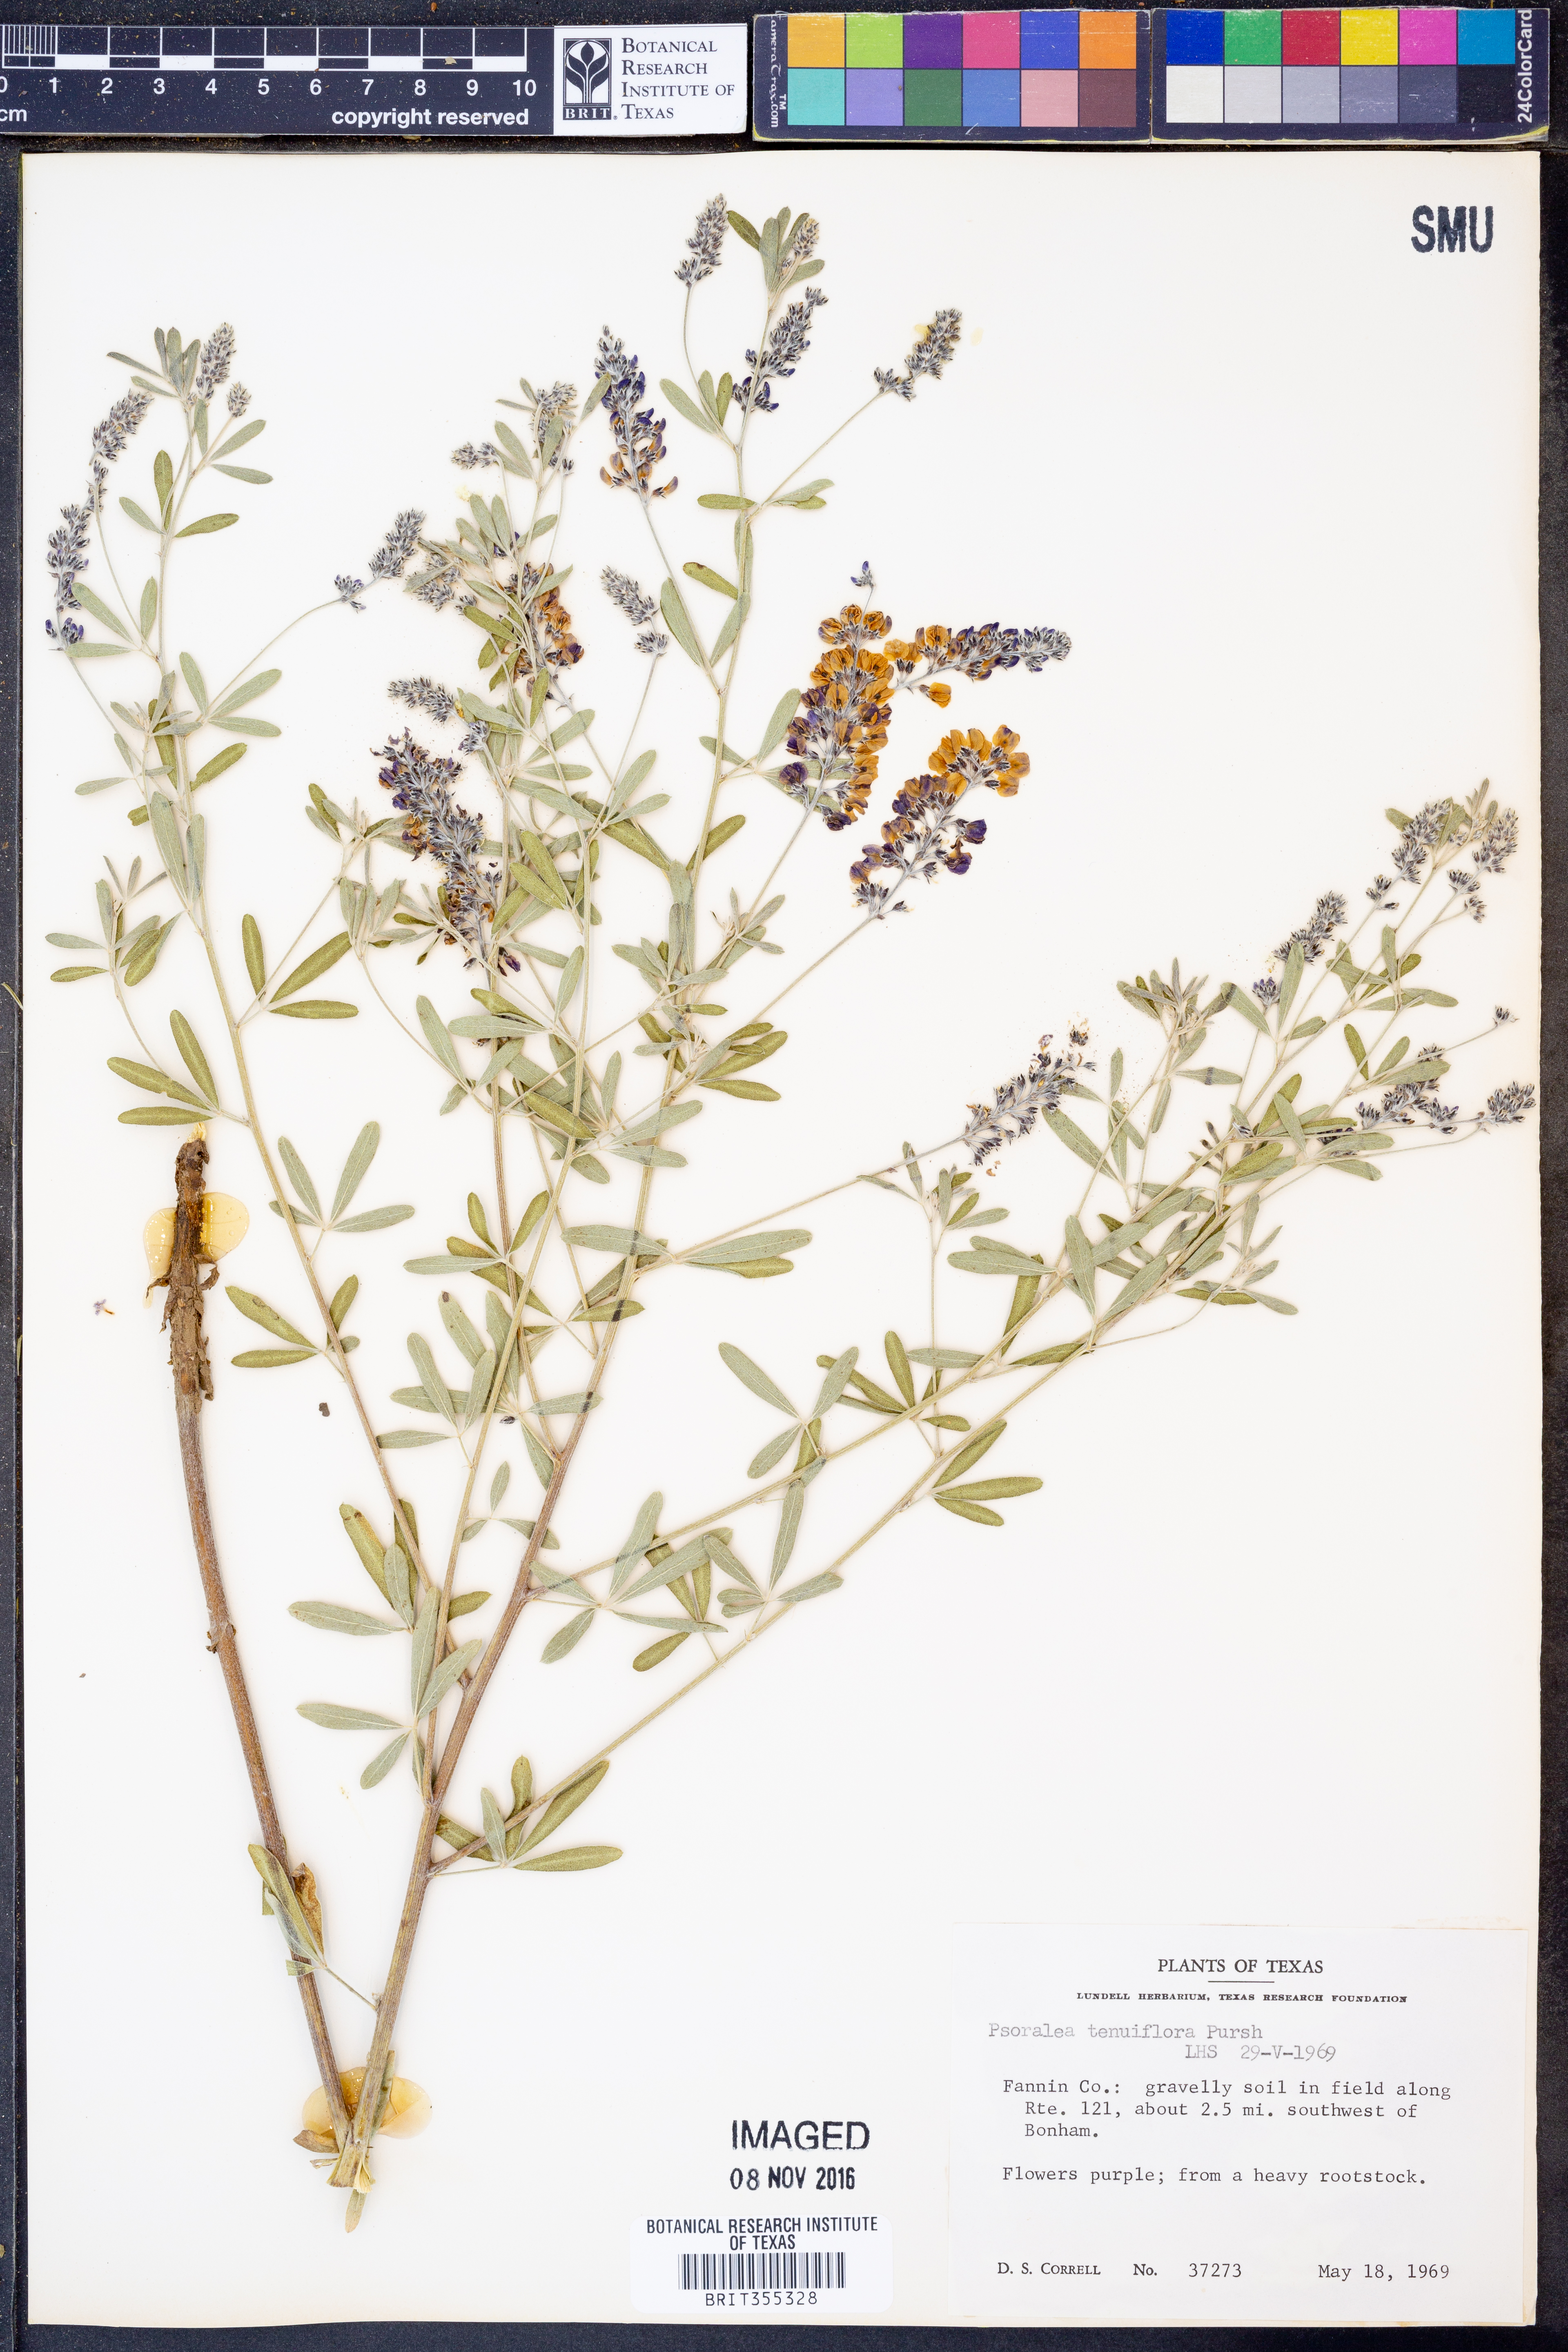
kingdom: Plantae
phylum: Tracheophyta
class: Magnoliopsida
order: Fabales
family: Fabaceae
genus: Pediomelum
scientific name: Pediomelum tenuiflorum
